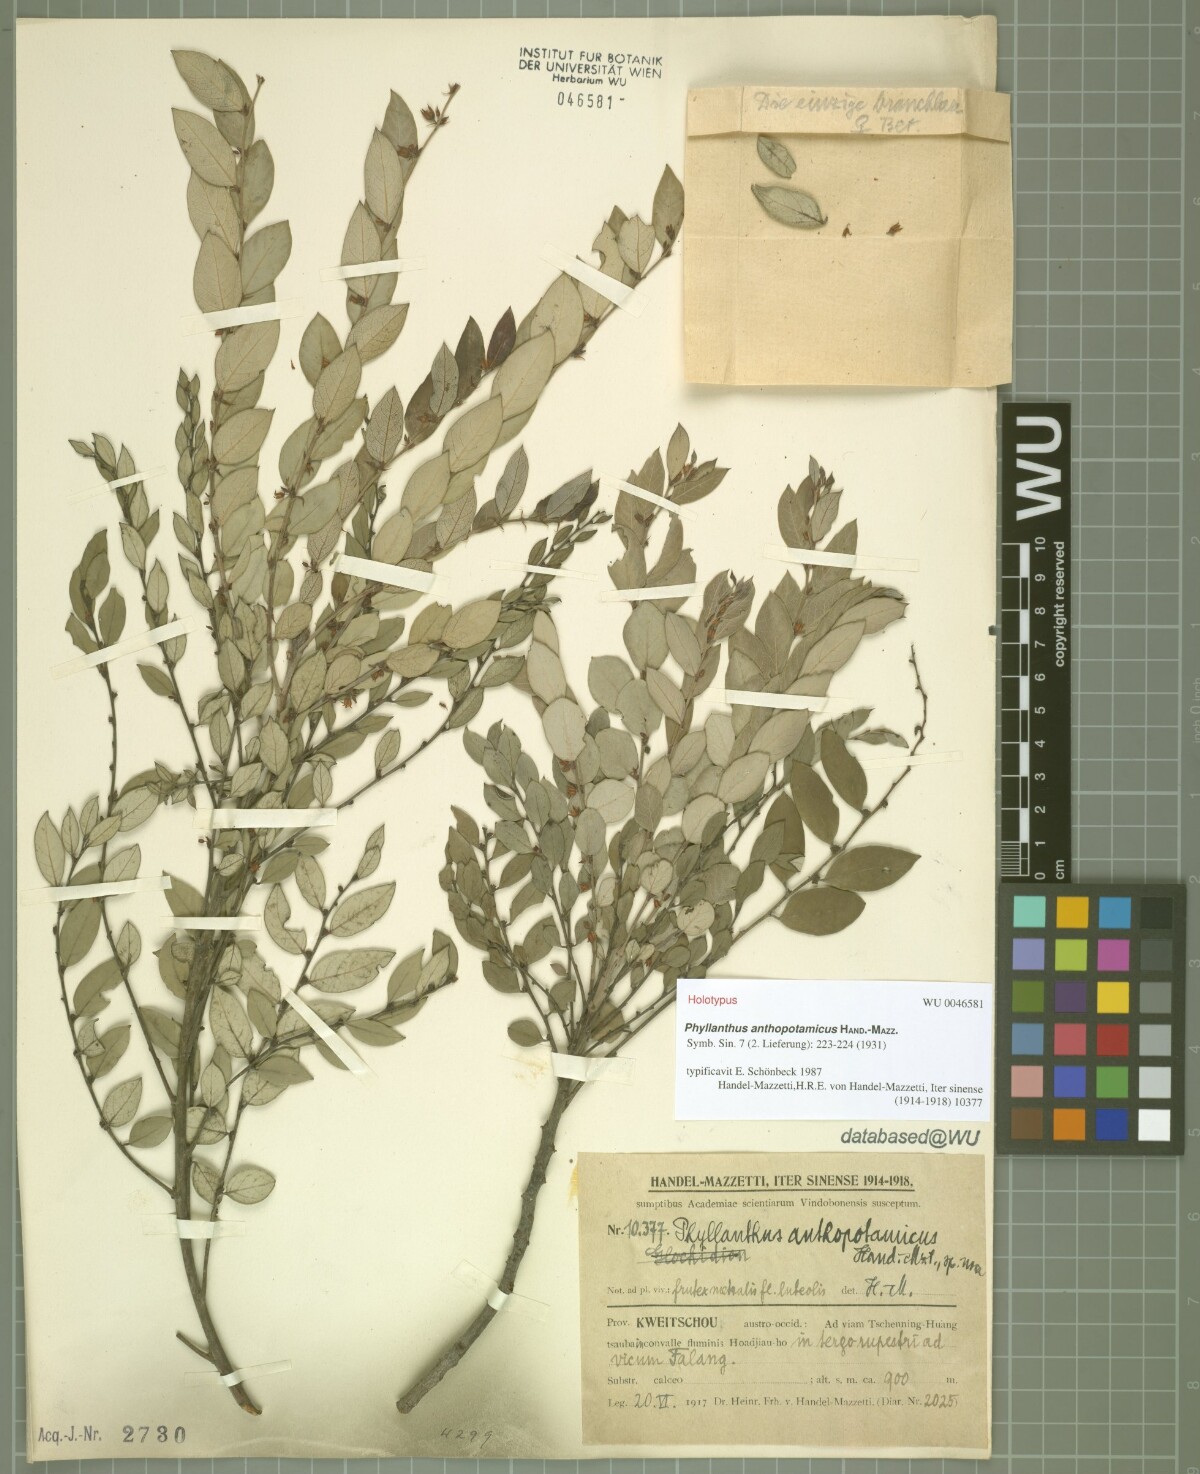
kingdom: Plantae
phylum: Tracheophyta
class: Magnoliopsida
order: Malpighiales
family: Phyllanthaceae
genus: Phyllanthus
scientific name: Phyllanthus anthopotamicus
